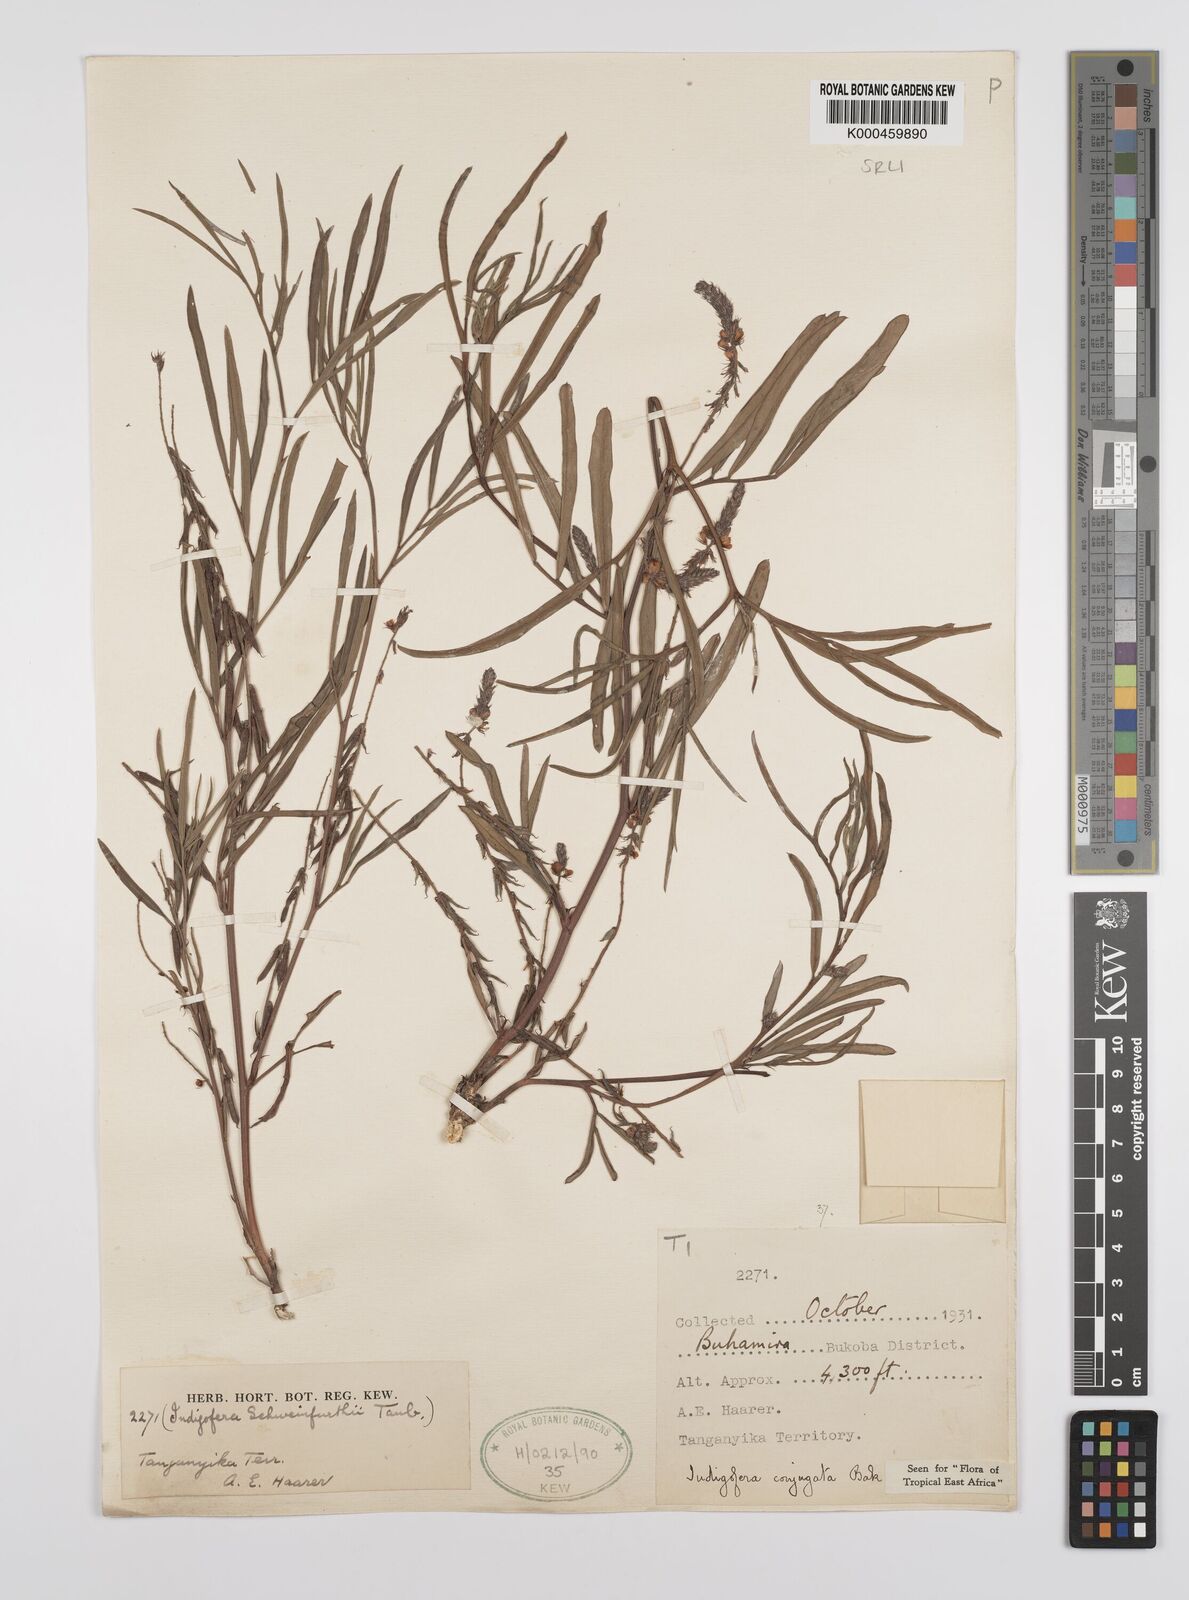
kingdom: Plantae
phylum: Tracheophyta
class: Magnoliopsida
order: Fabales
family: Fabaceae
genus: Indigofera
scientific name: Indigofera conjugata
